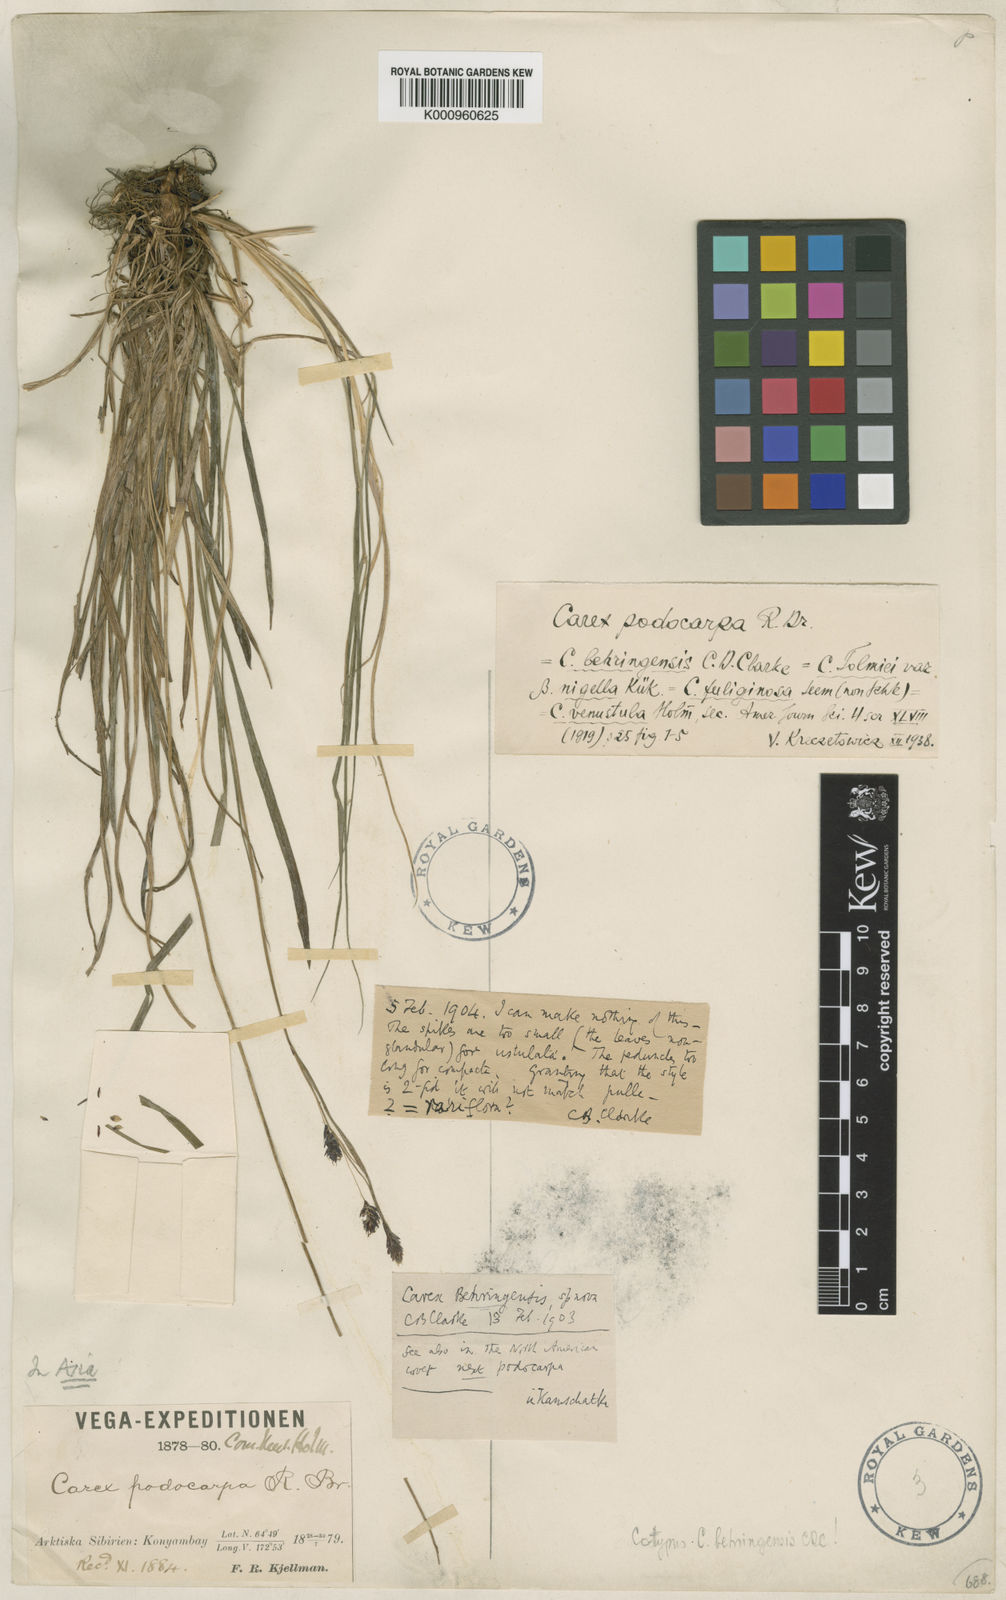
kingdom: Plantae
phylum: Tracheophyta
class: Liliopsida
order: Poales
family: Cyperaceae
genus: Carex
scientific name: Carex podocarpa
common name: Alpine sedge
